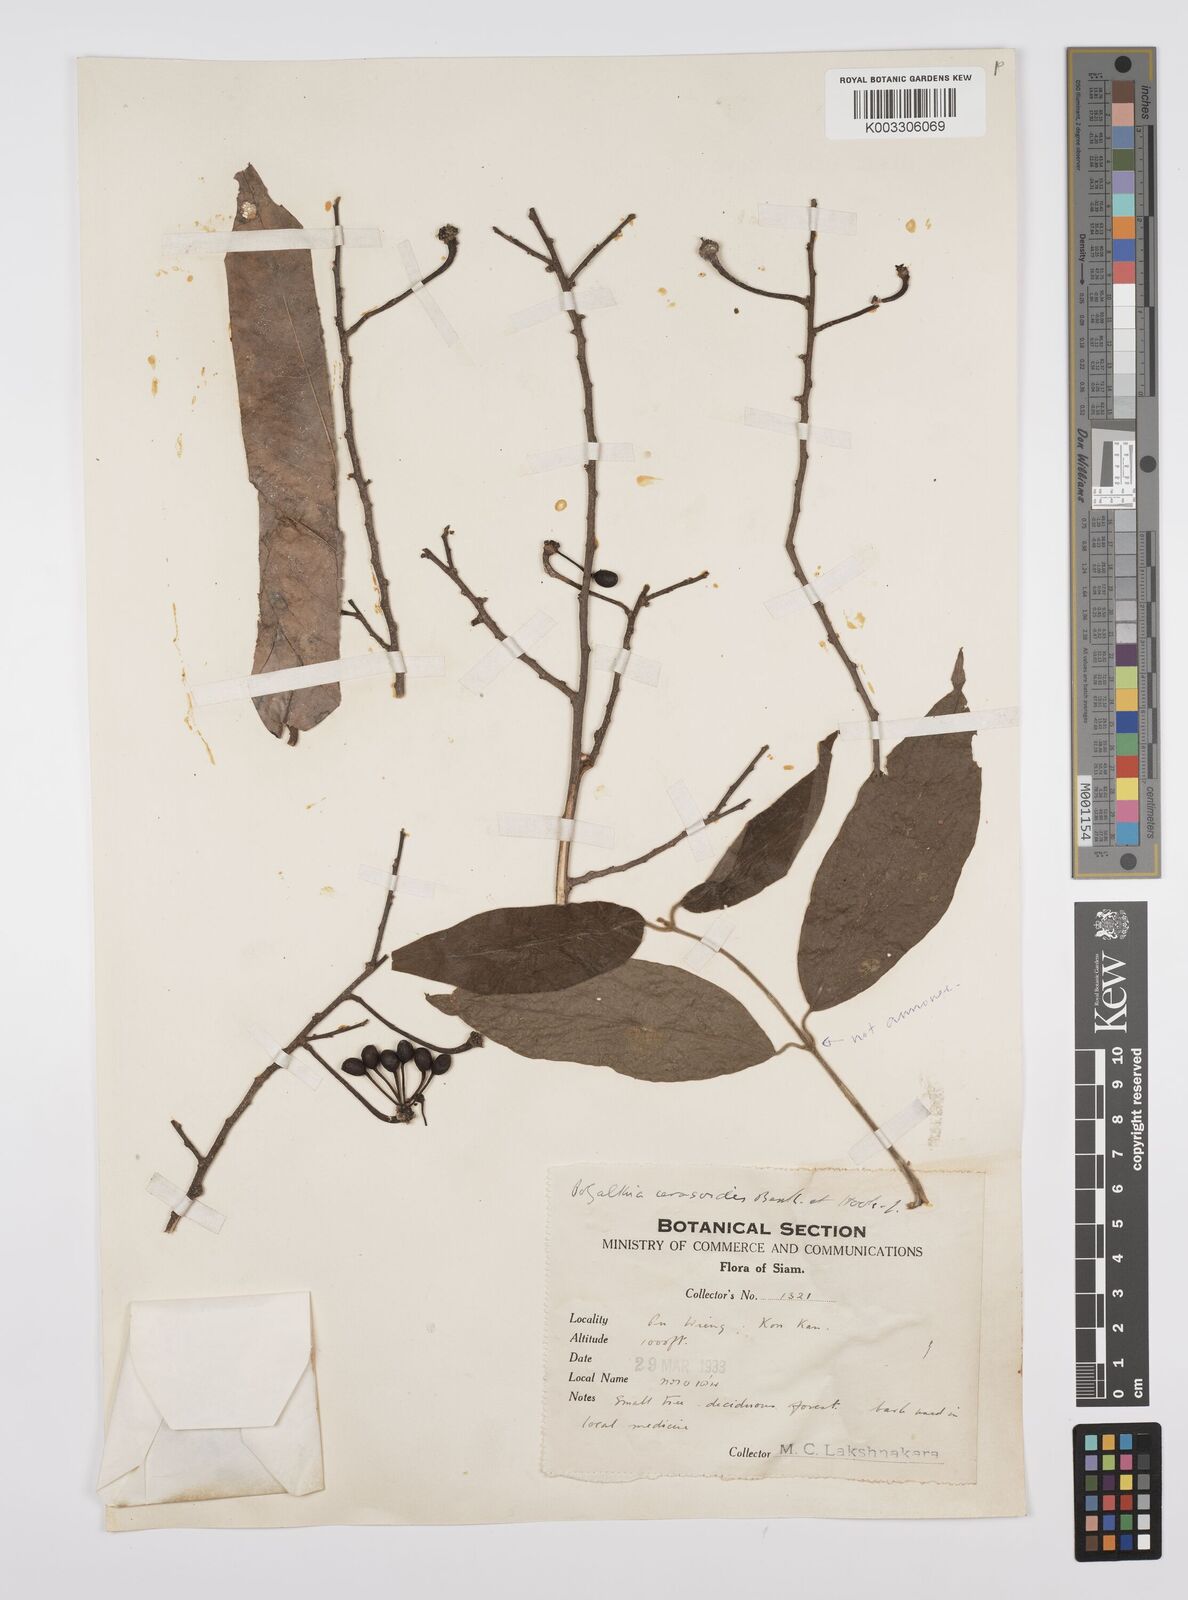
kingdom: Plantae
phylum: Tracheophyta
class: Magnoliopsida
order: Magnoliales
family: Annonaceae
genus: Hubera
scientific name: Hubera cerasoides
